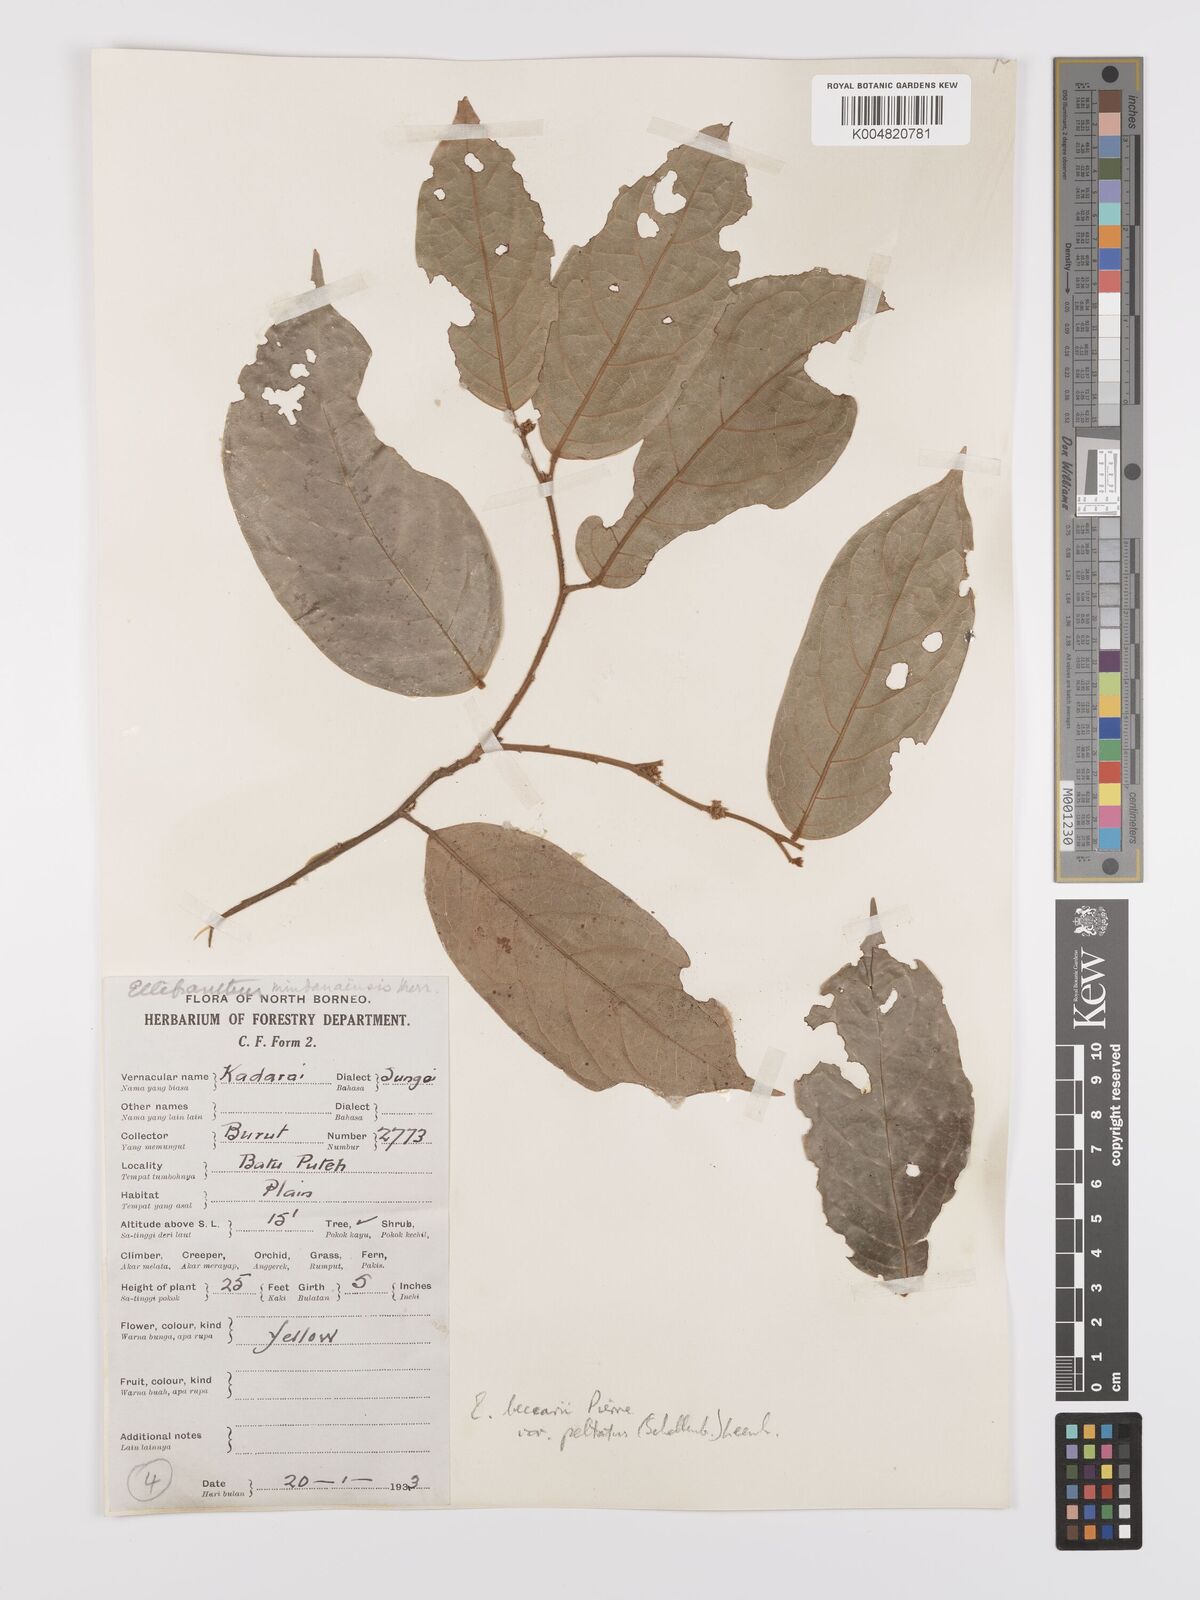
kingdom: Plantae
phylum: Tracheophyta
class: Magnoliopsida
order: Oxalidales
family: Connaraceae
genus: Ellipanthus
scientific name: Ellipanthus beccarii
